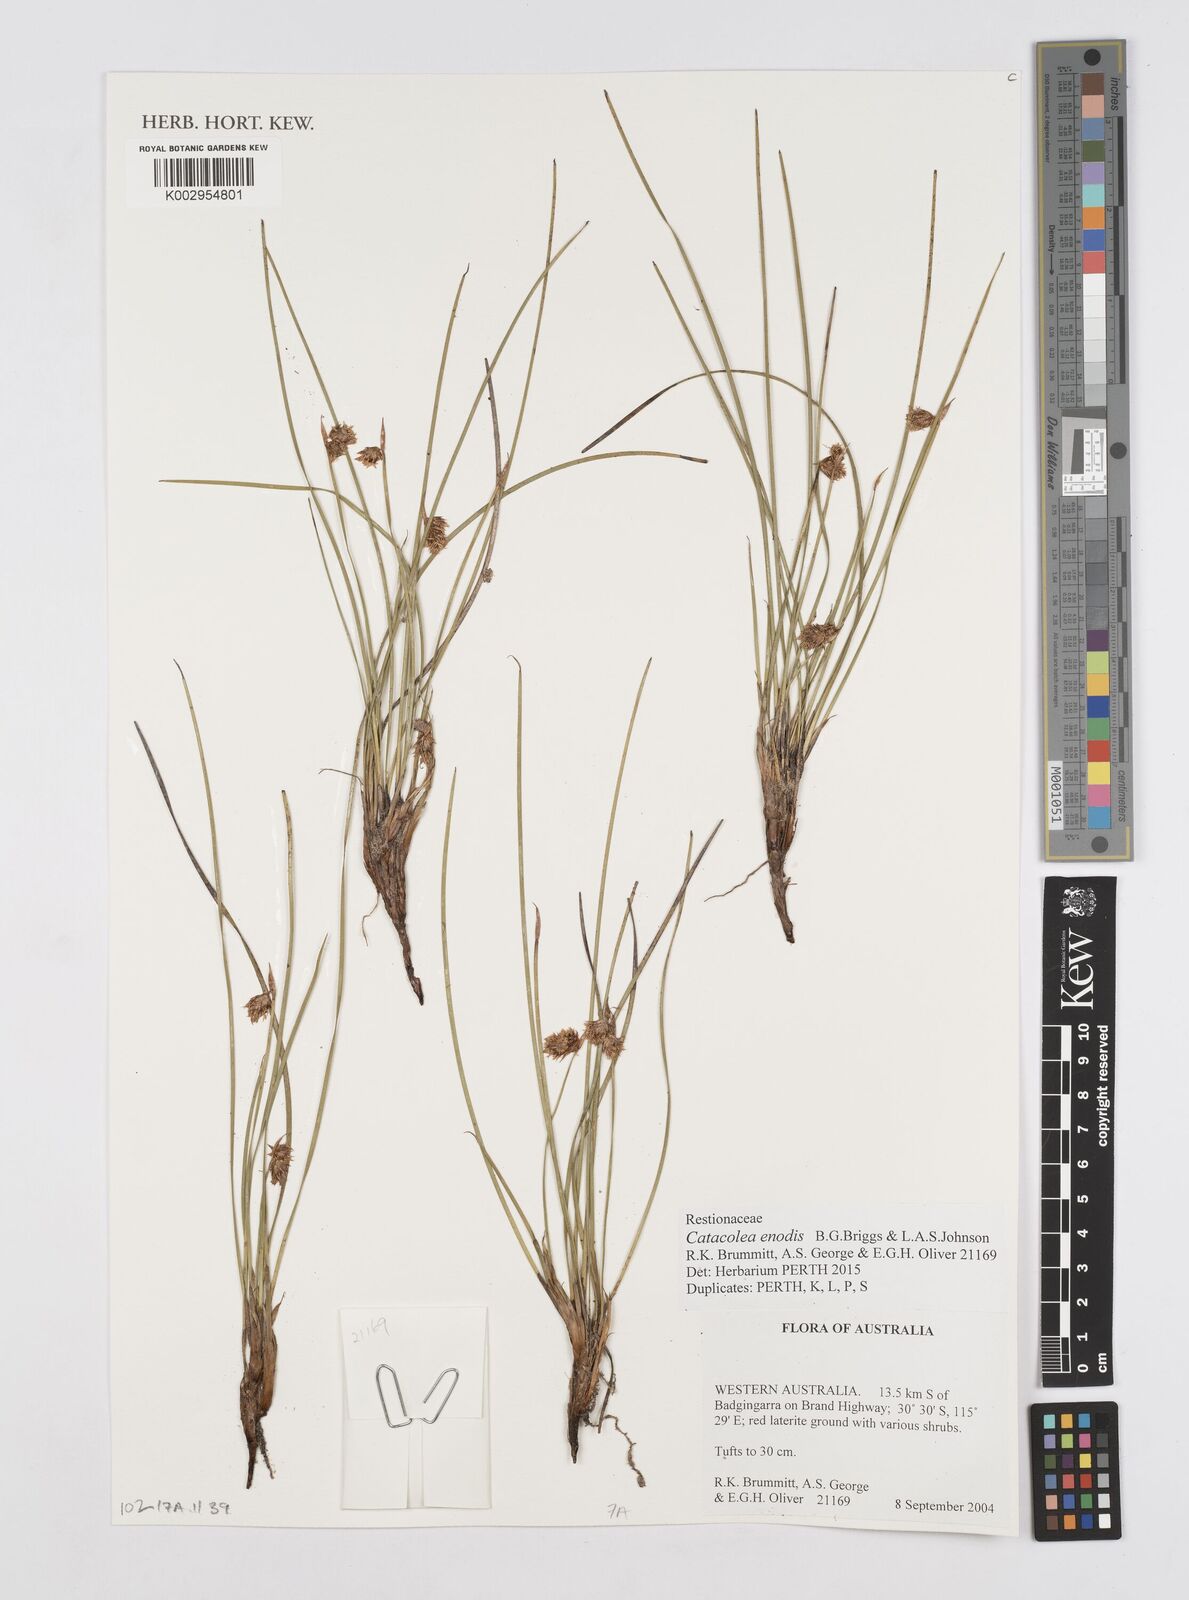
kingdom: Plantae
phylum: Tracheophyta
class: Liliopsida
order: Poales
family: Restionaceae
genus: Catacolea
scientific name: Catacolea enodis
